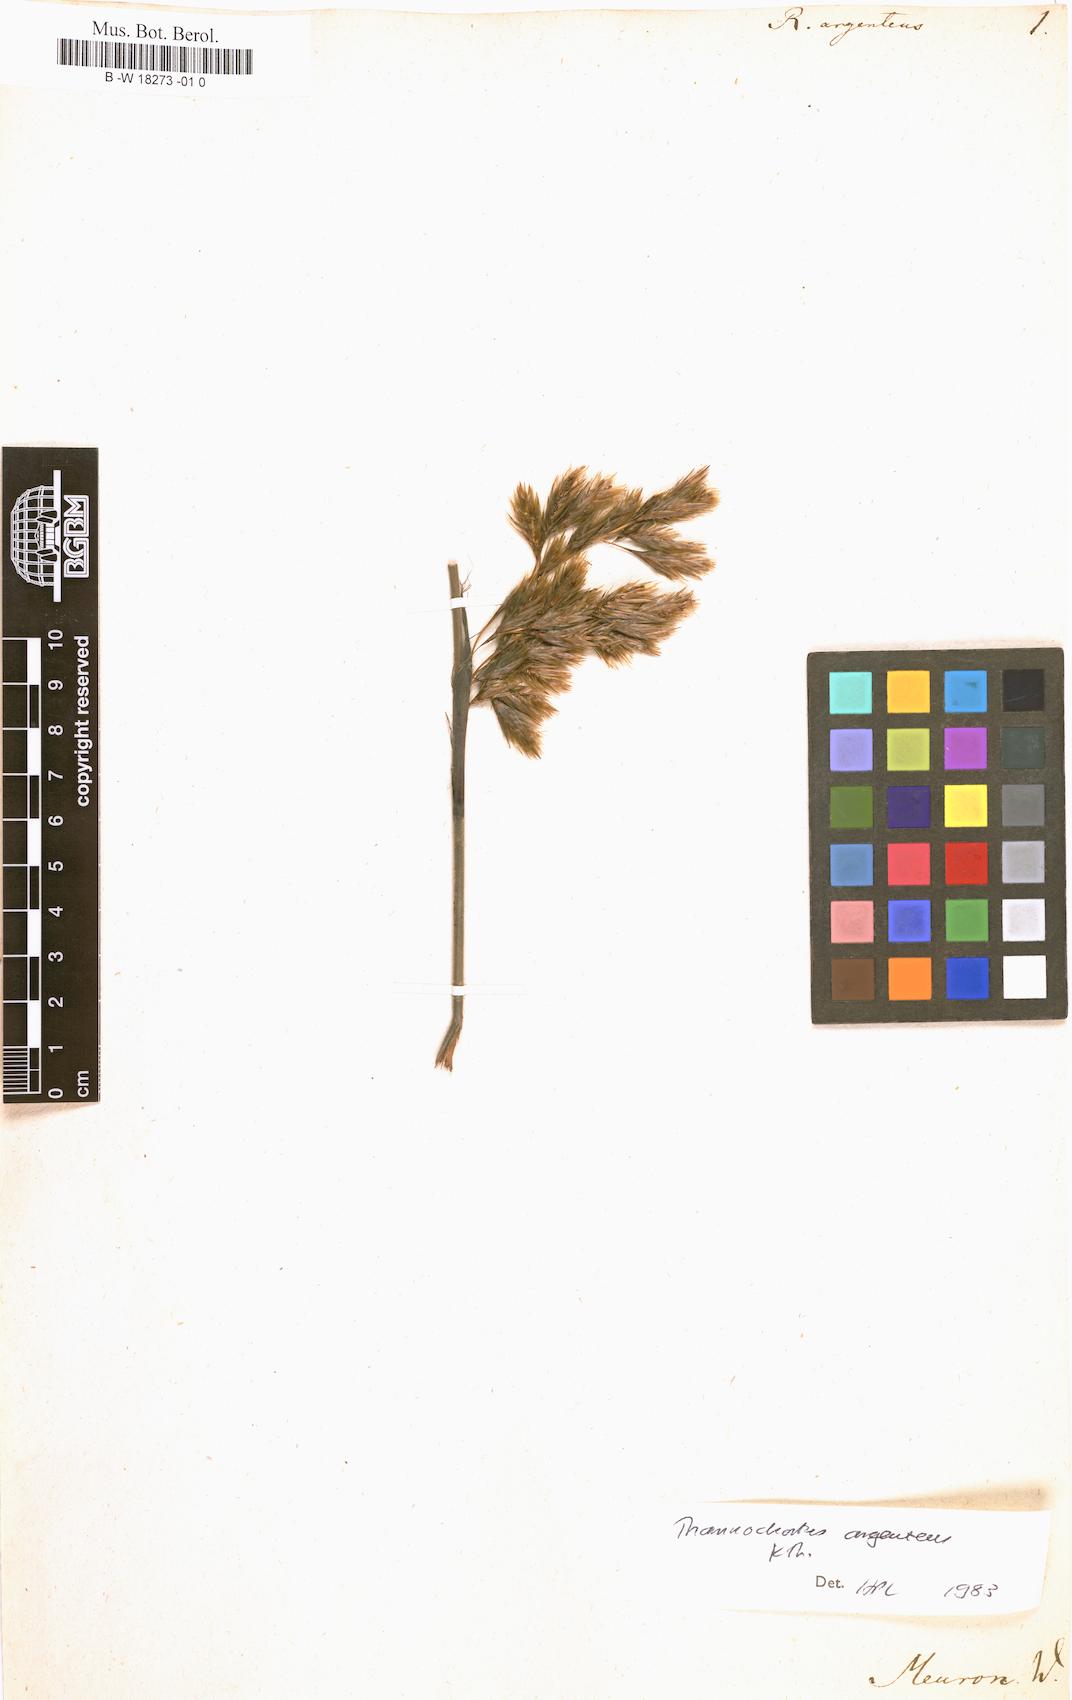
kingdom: Plantae
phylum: Tracheophyta
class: Liliopsida
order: Poales
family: Restionaceae
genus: Restio
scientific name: Restio argenteus
